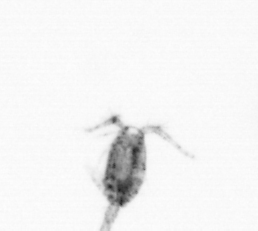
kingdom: Animalia
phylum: Arthropoda
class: Copepoda
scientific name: Copepoda
